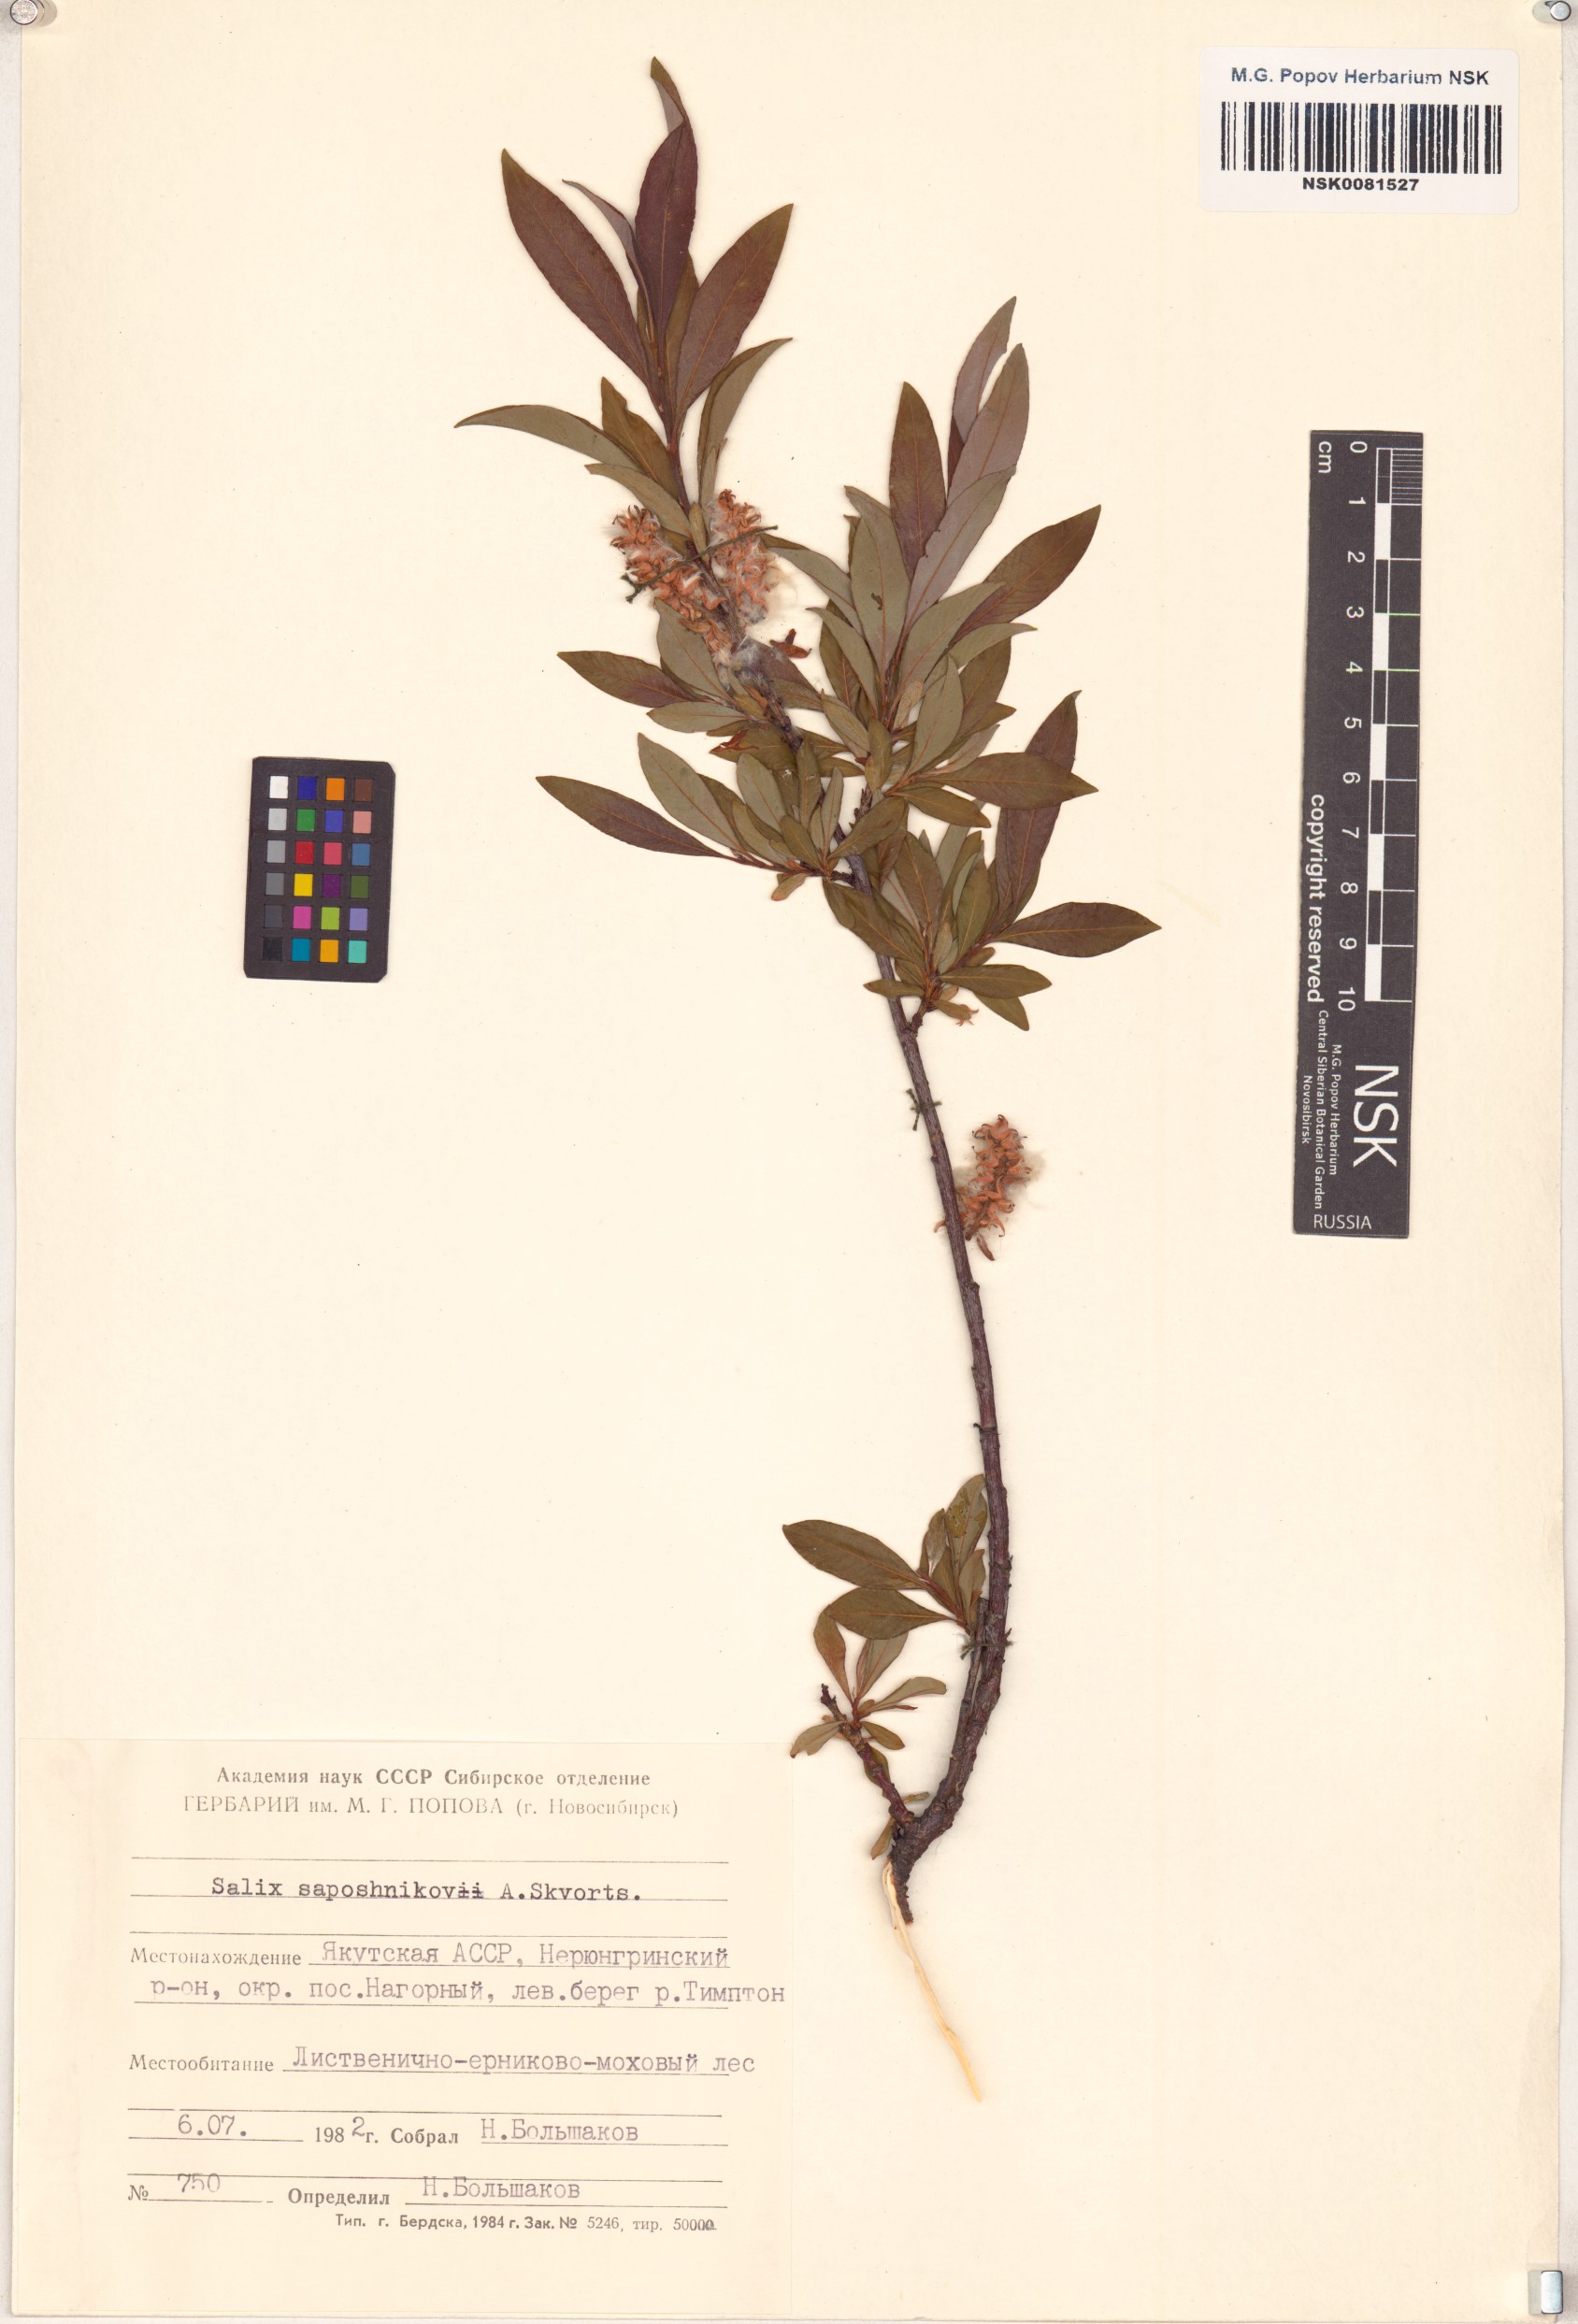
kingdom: Plantae
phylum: Tracheophyta
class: Magnoliopsida
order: Malpighiales
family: Salicaceae
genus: Salix
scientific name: Salix saposhnikovii
